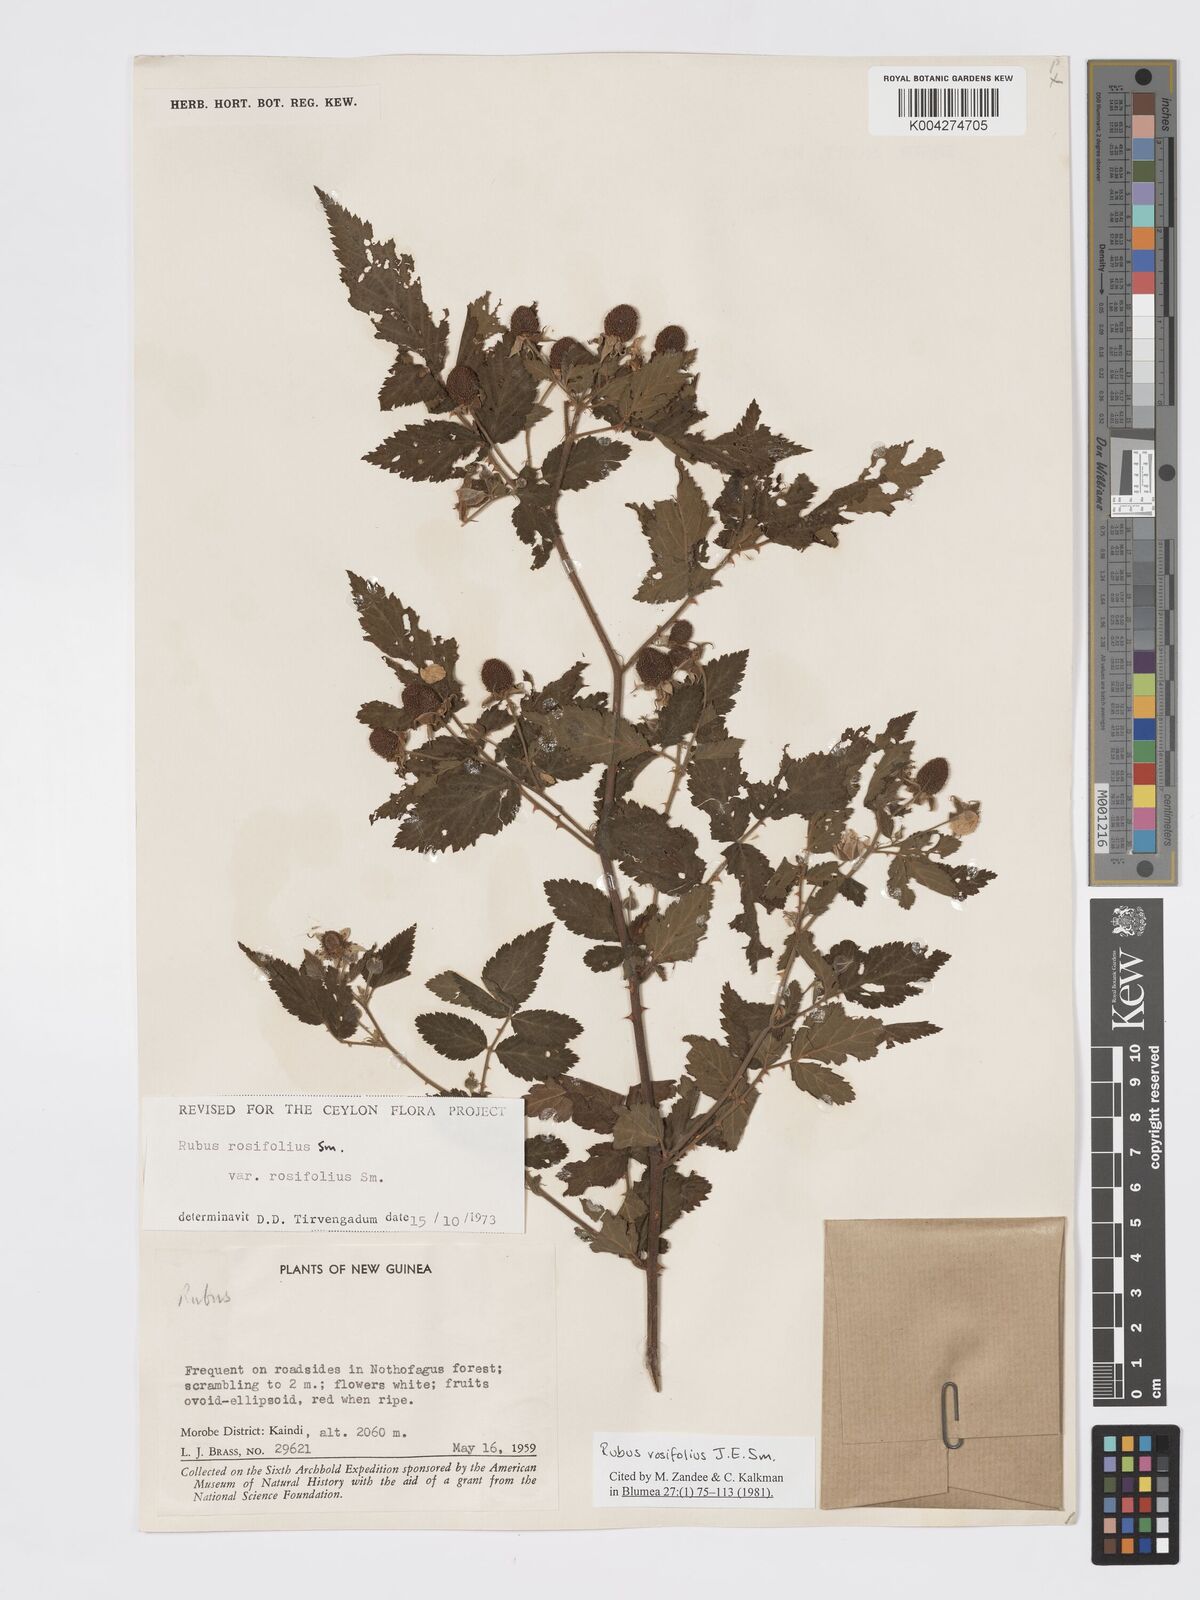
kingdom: Plantae
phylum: Tracheophyta
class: Magnoliopsida
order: Rosales
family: Rosaceae
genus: Rubus
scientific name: Rubus
